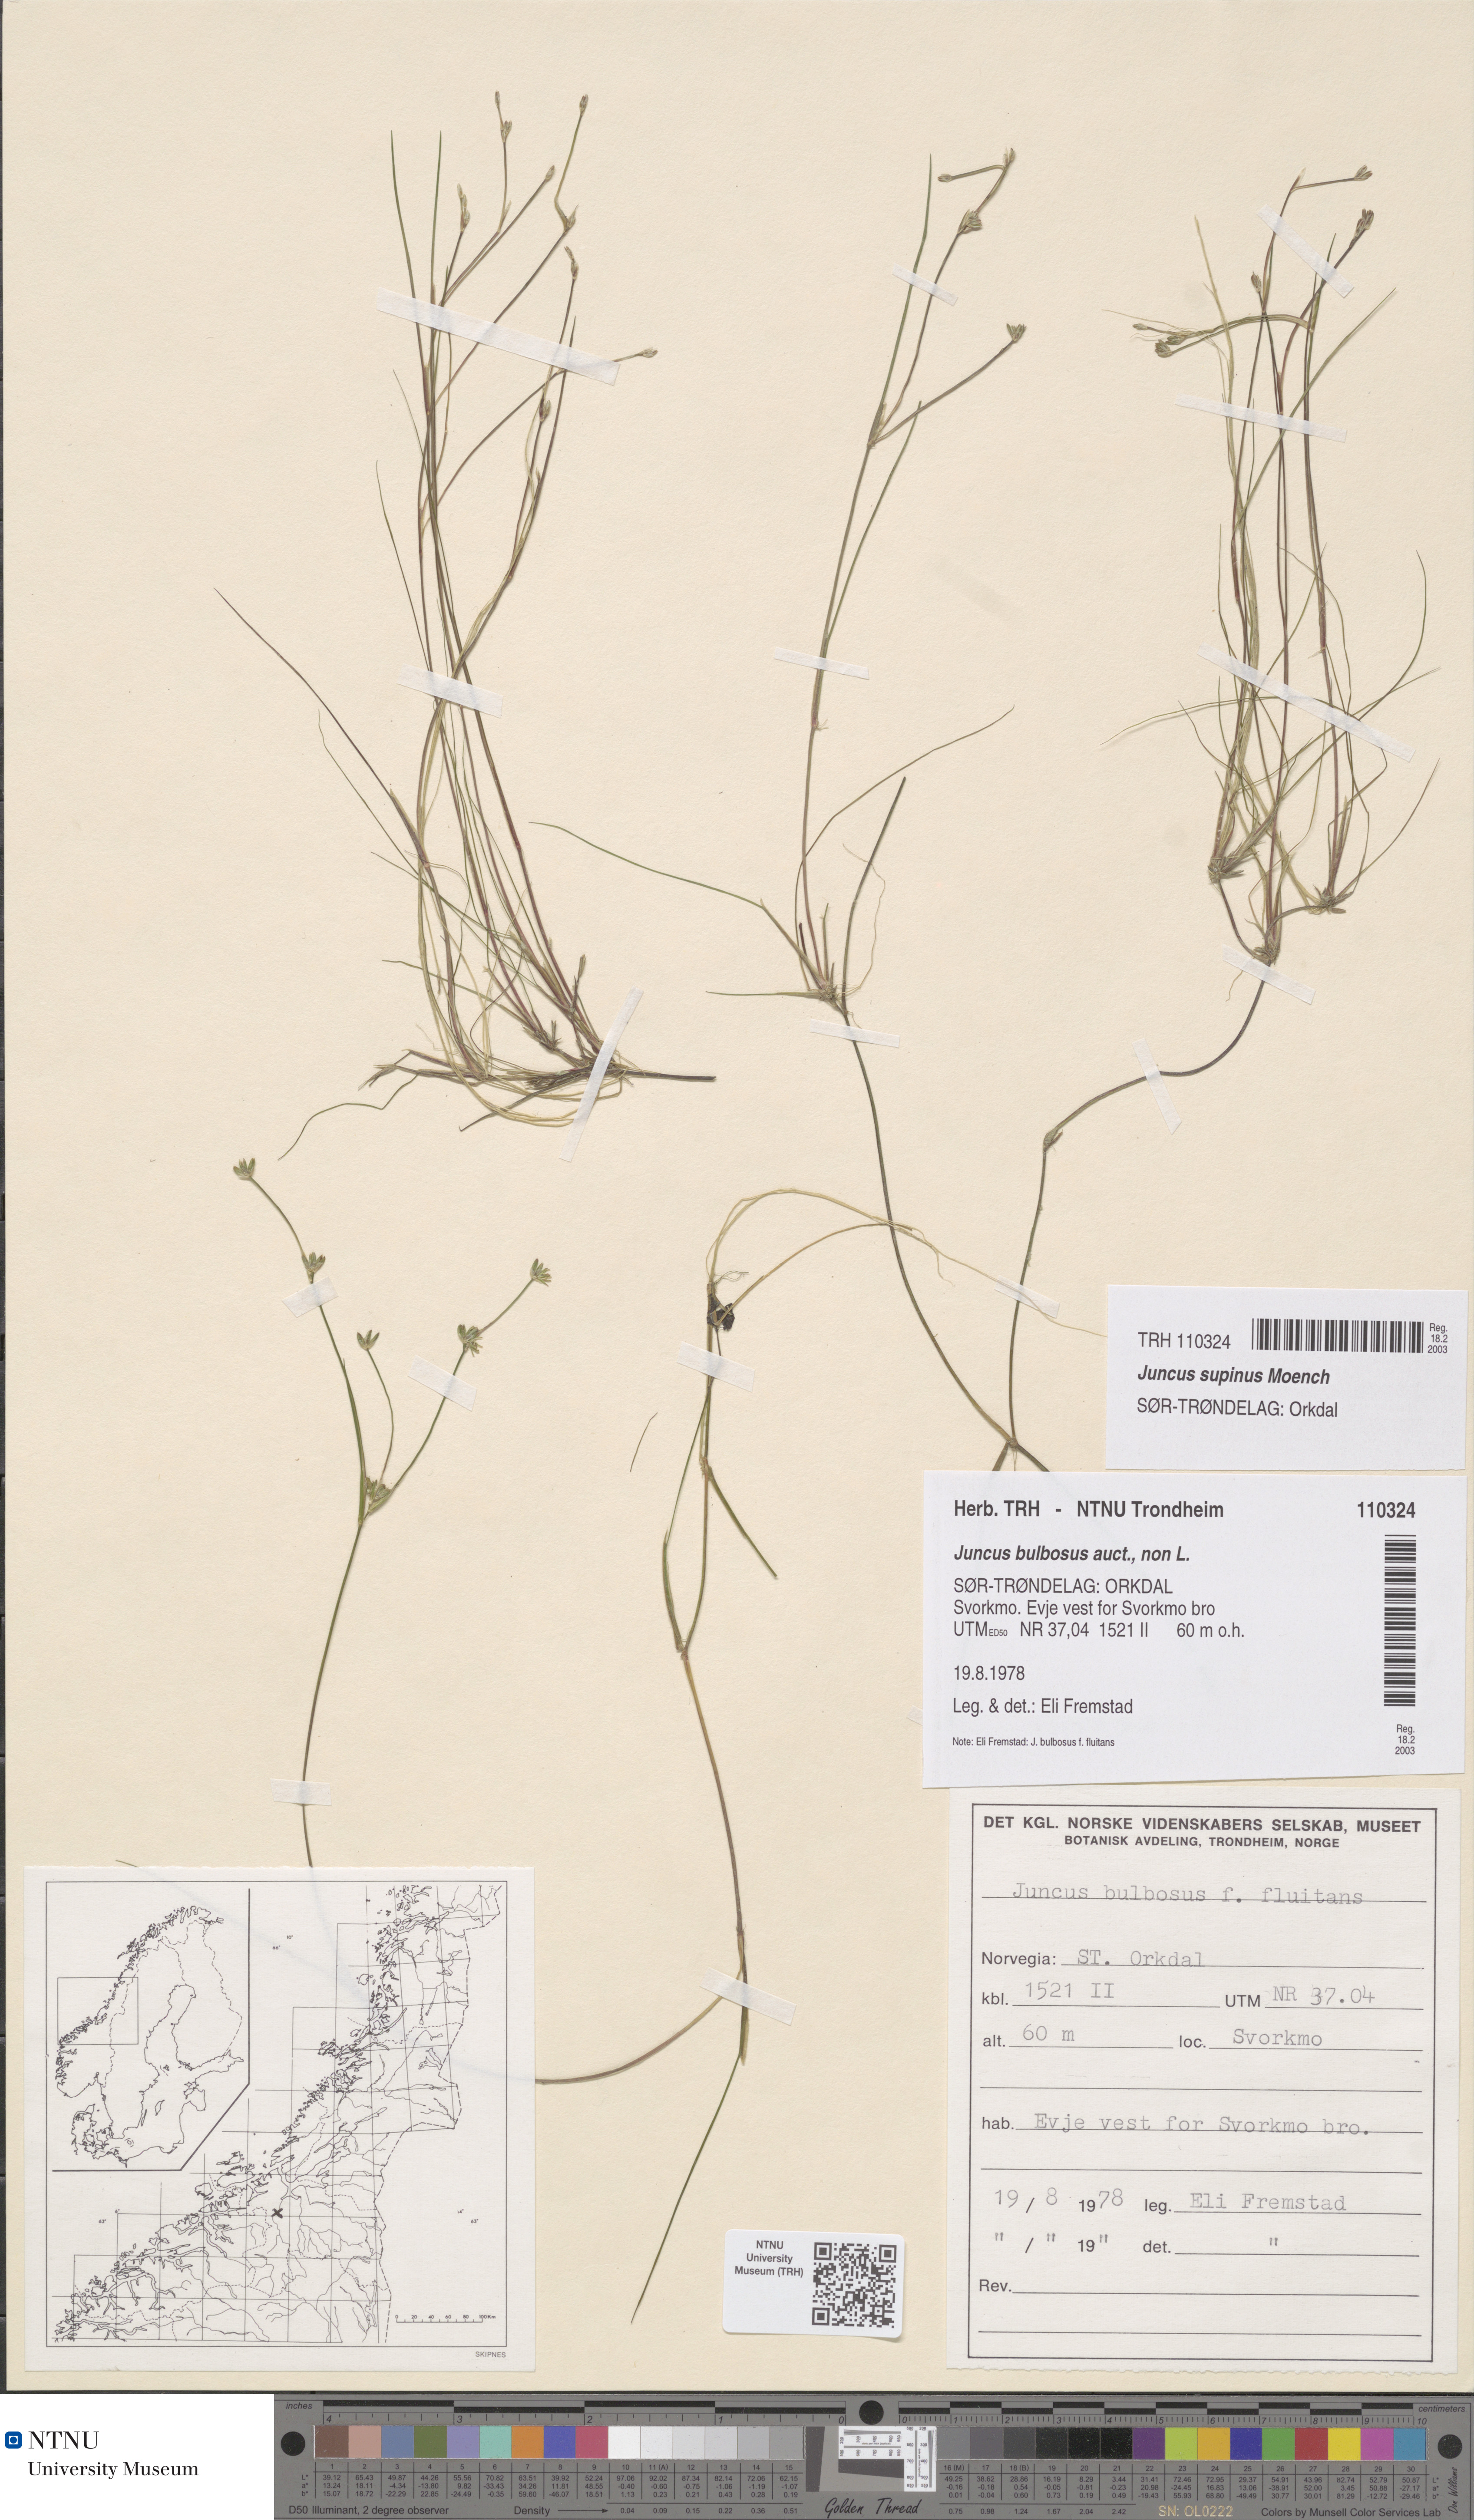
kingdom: Plantae
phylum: Tracheophyta
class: Liliopsida
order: Poales
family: Juncaceae
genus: Juncus
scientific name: Juncus bulbosus
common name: Bulbous rush
